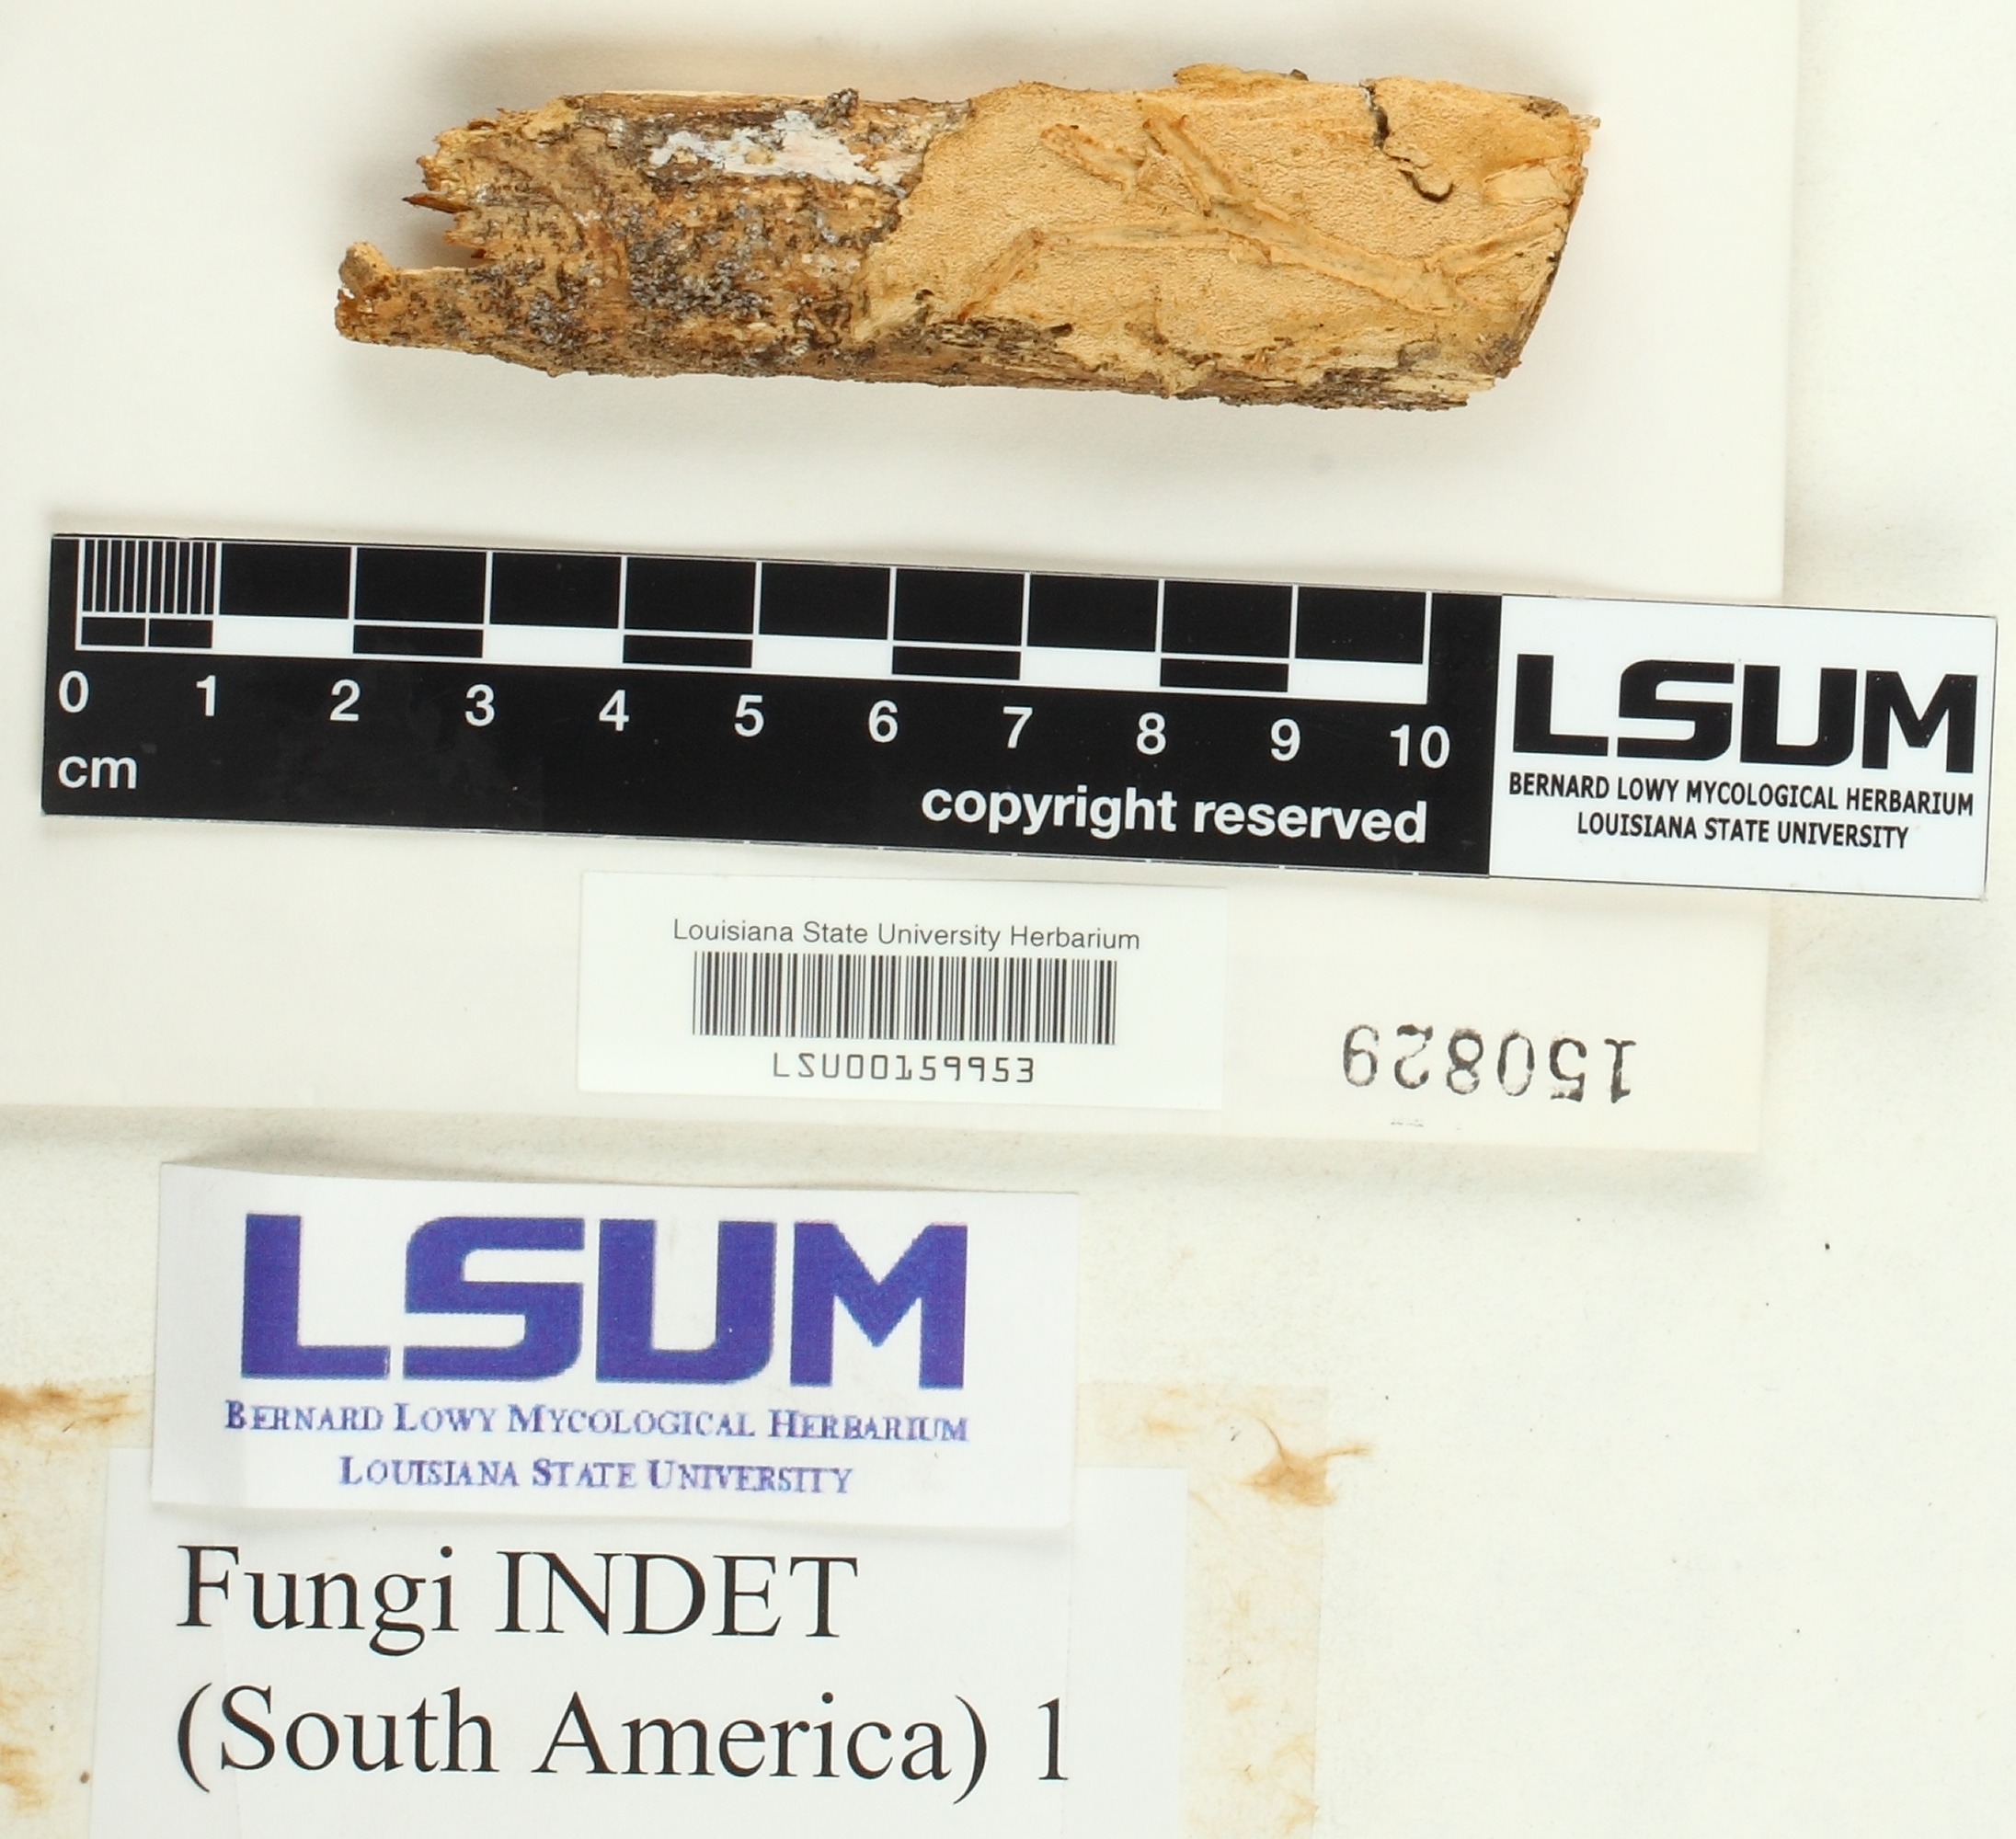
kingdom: Fungi
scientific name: Fungi
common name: Fungi
